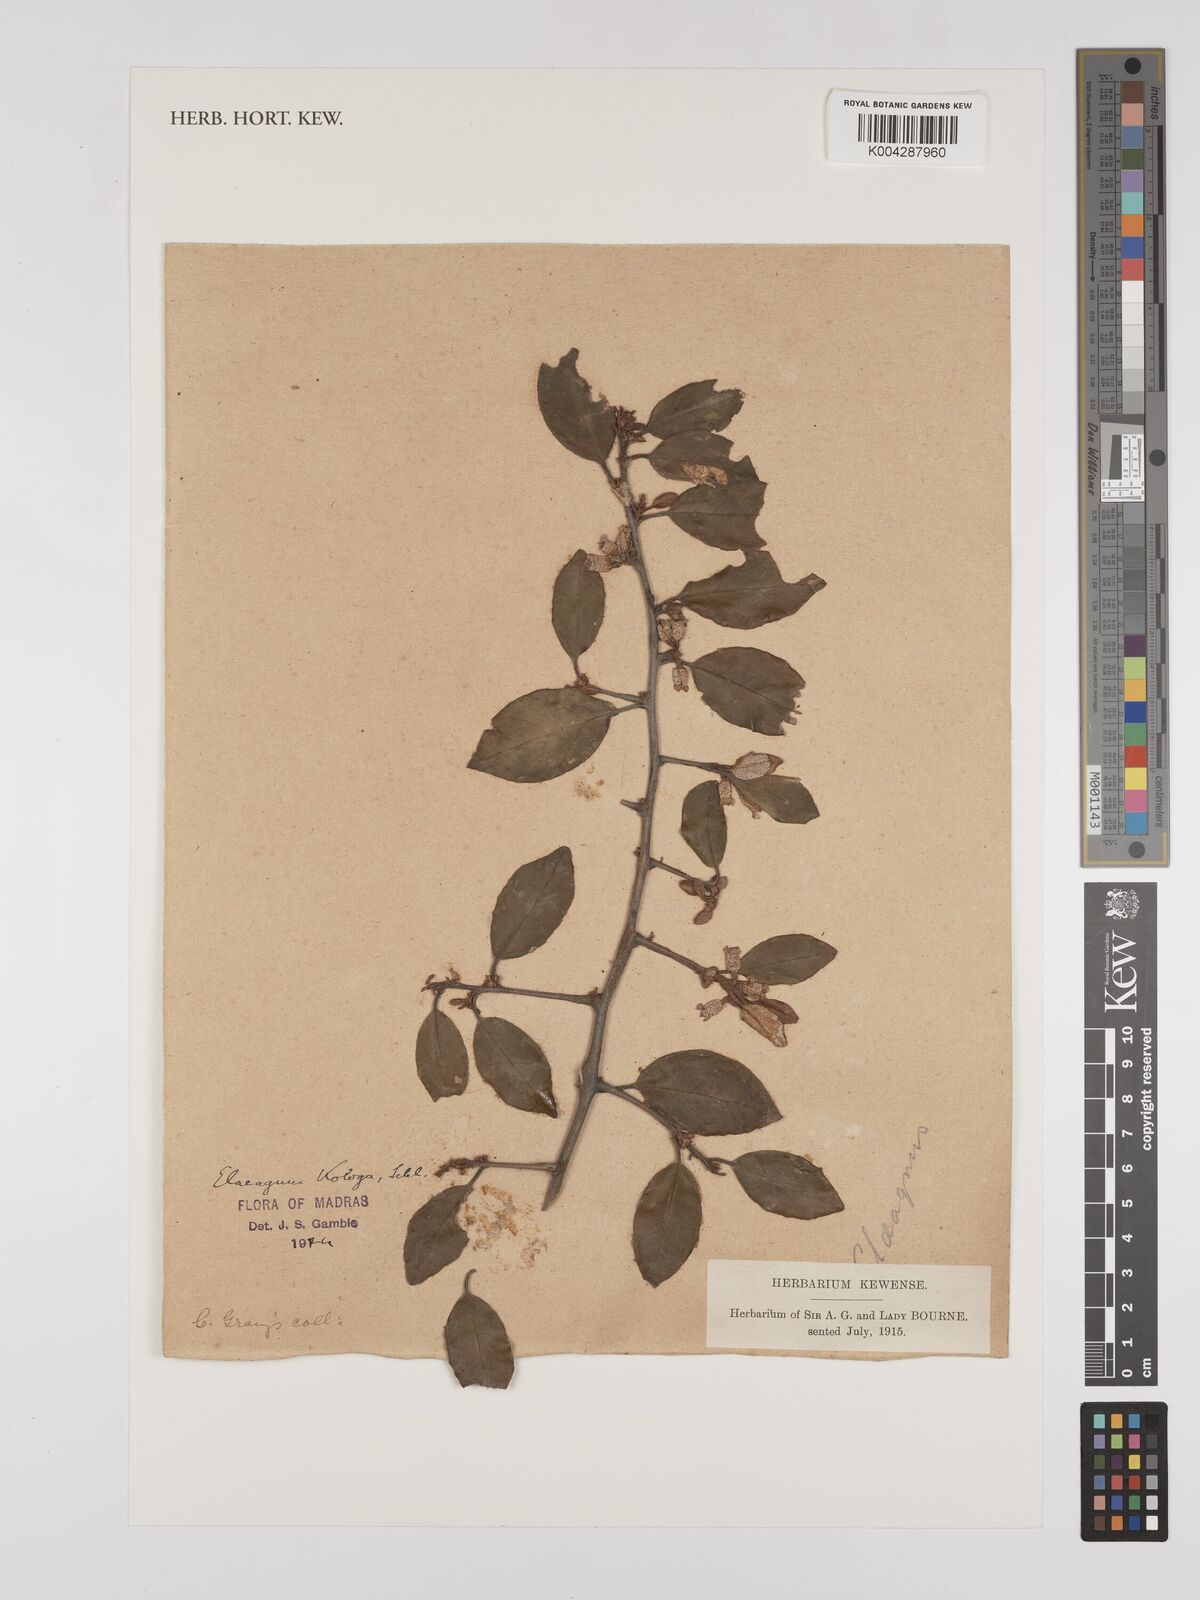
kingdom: Plantae
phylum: Tracheophyta
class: Magnoliopsida
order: Rosales
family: Elaeagnaceae
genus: Elaeagnus
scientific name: Elaeagnus latifolia
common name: Oleaster
